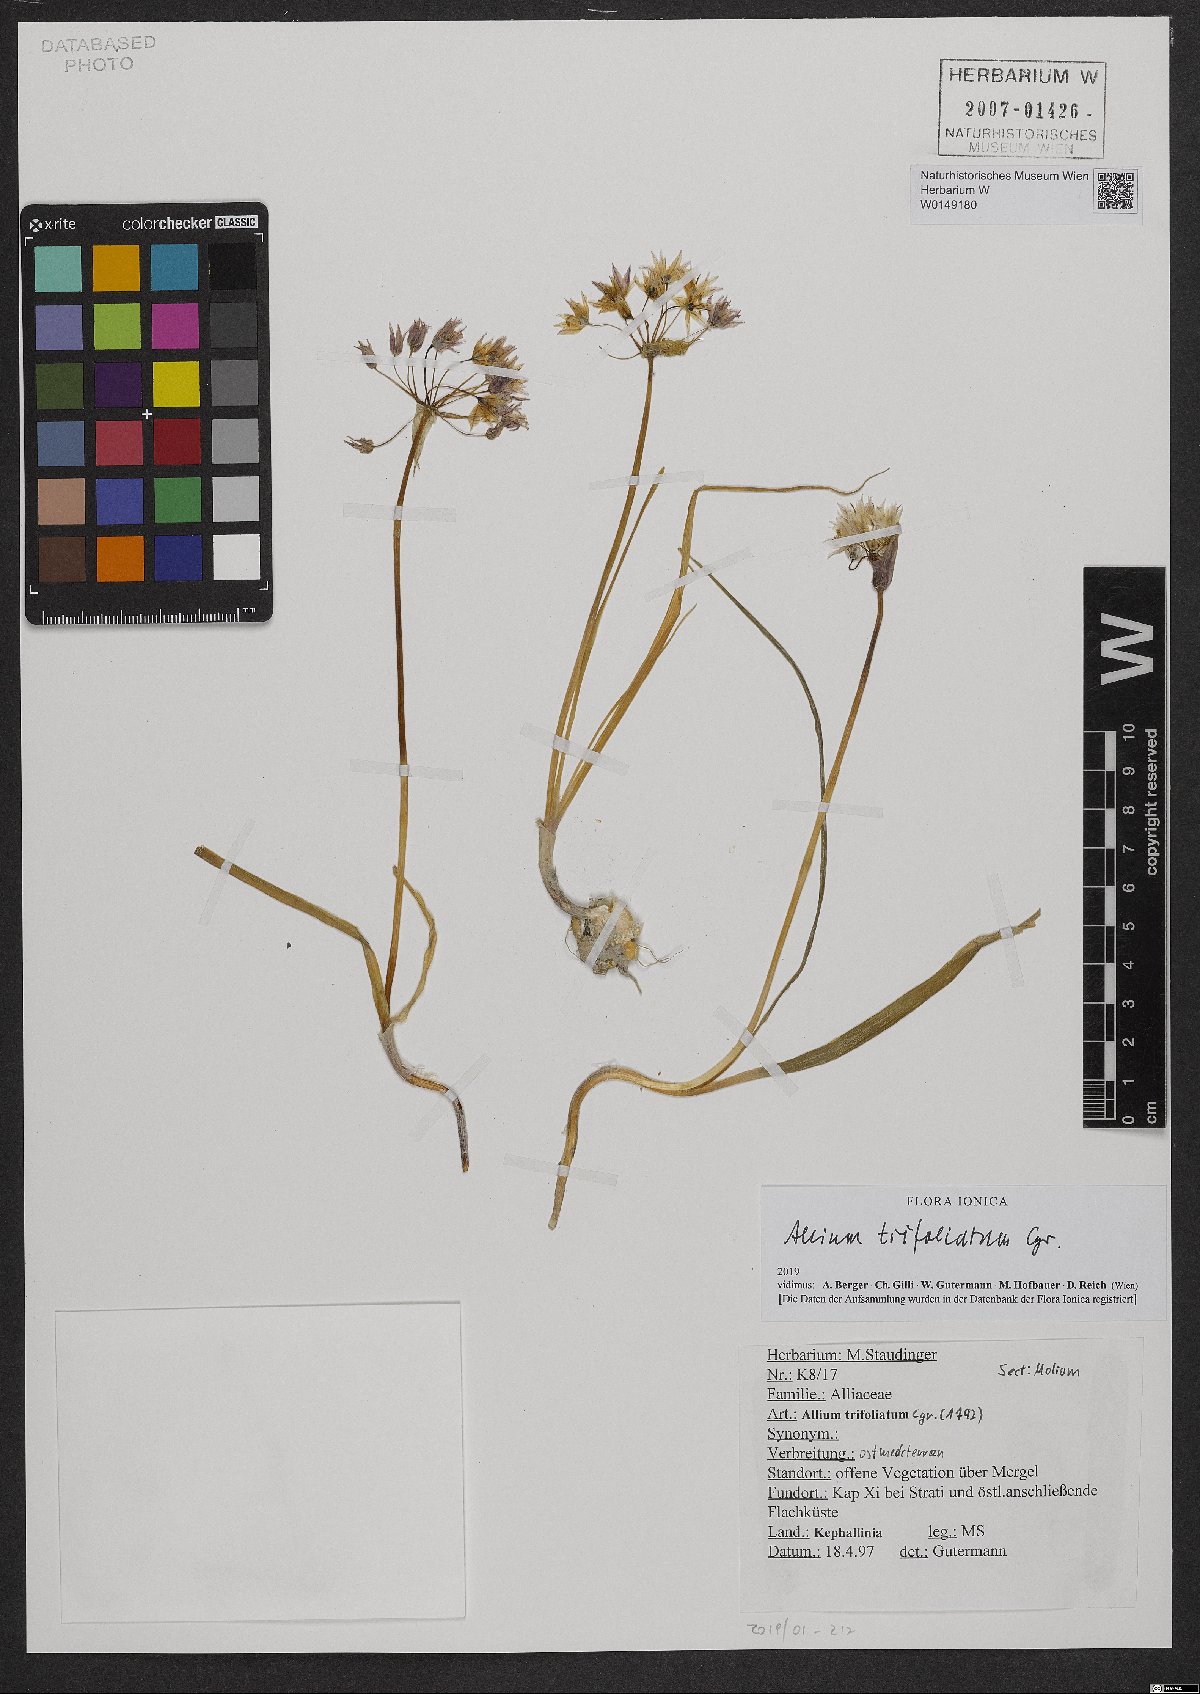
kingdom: Plantae
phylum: Tracheophyta
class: Liliopsida
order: Asparagales
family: Amaryllidaceae
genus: Allium
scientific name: Allium trifoliatum
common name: Pink garlic
